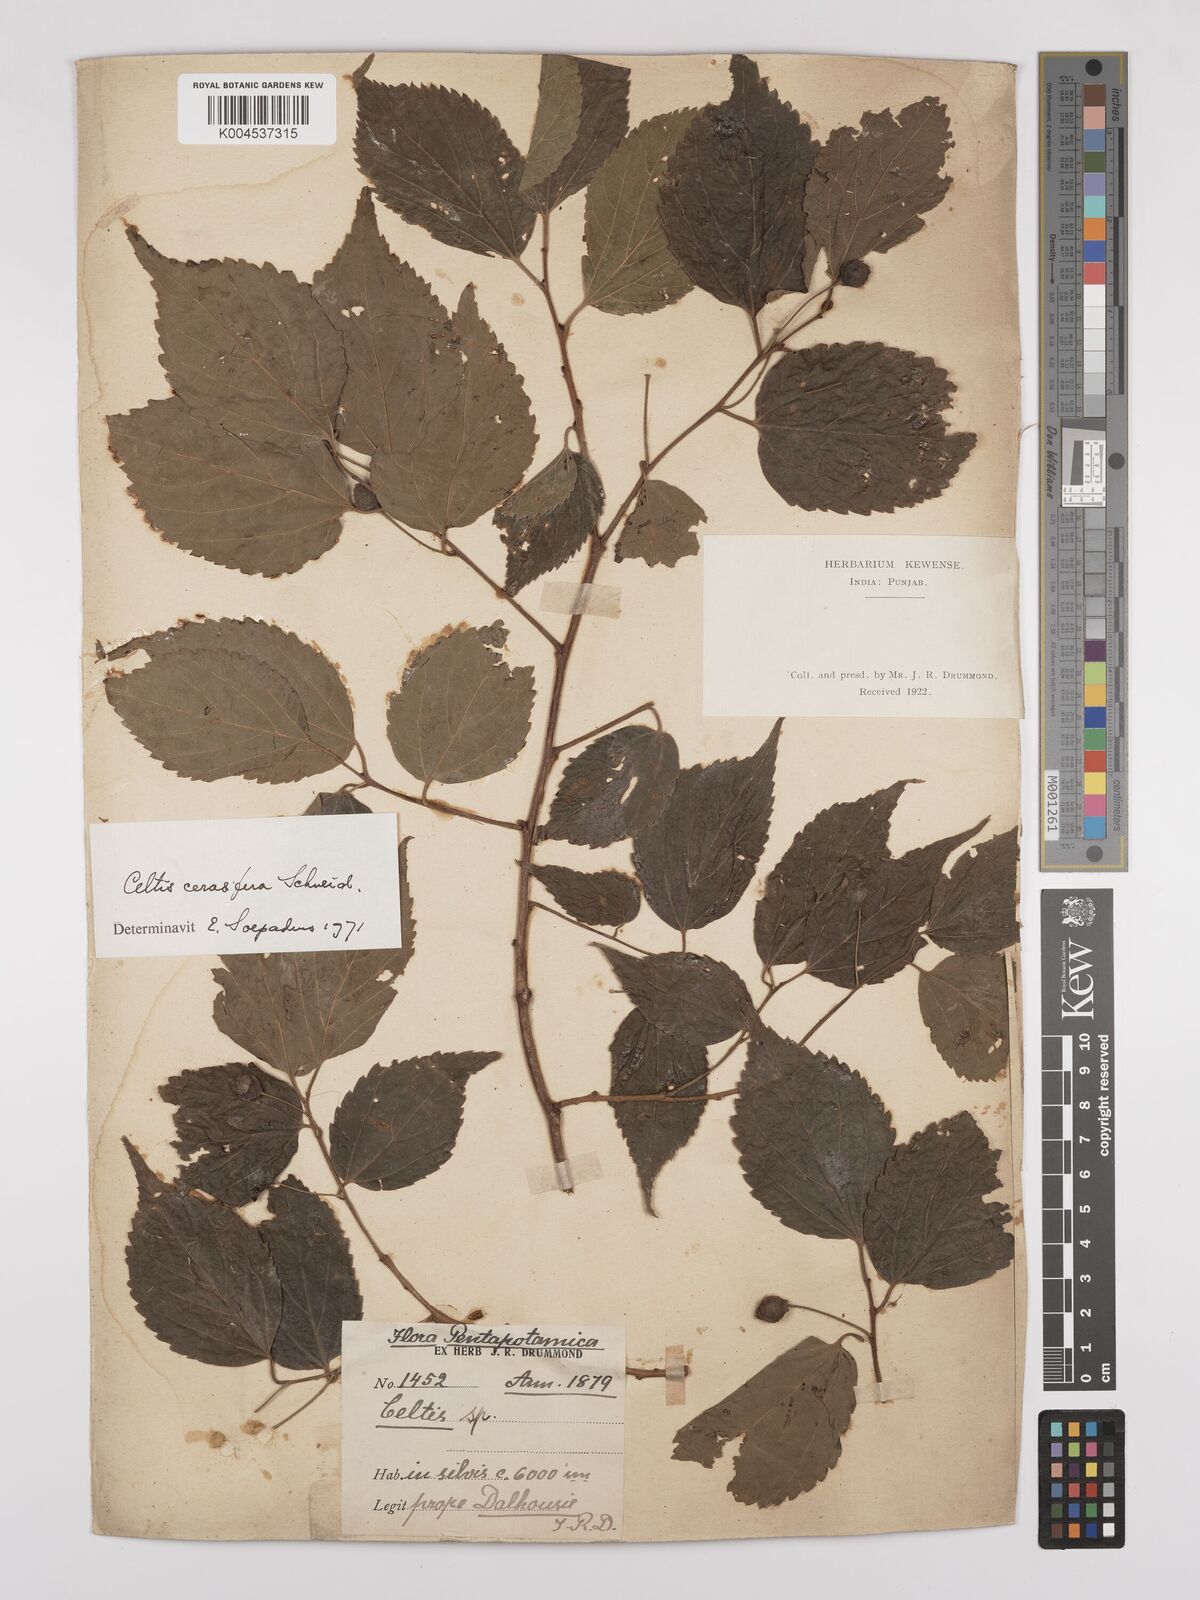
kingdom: Plantae
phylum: Tracheophyta
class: Magnoliopsida
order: Rosales
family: Cannabaceae
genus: Celtis
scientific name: Celtis cerasifera
